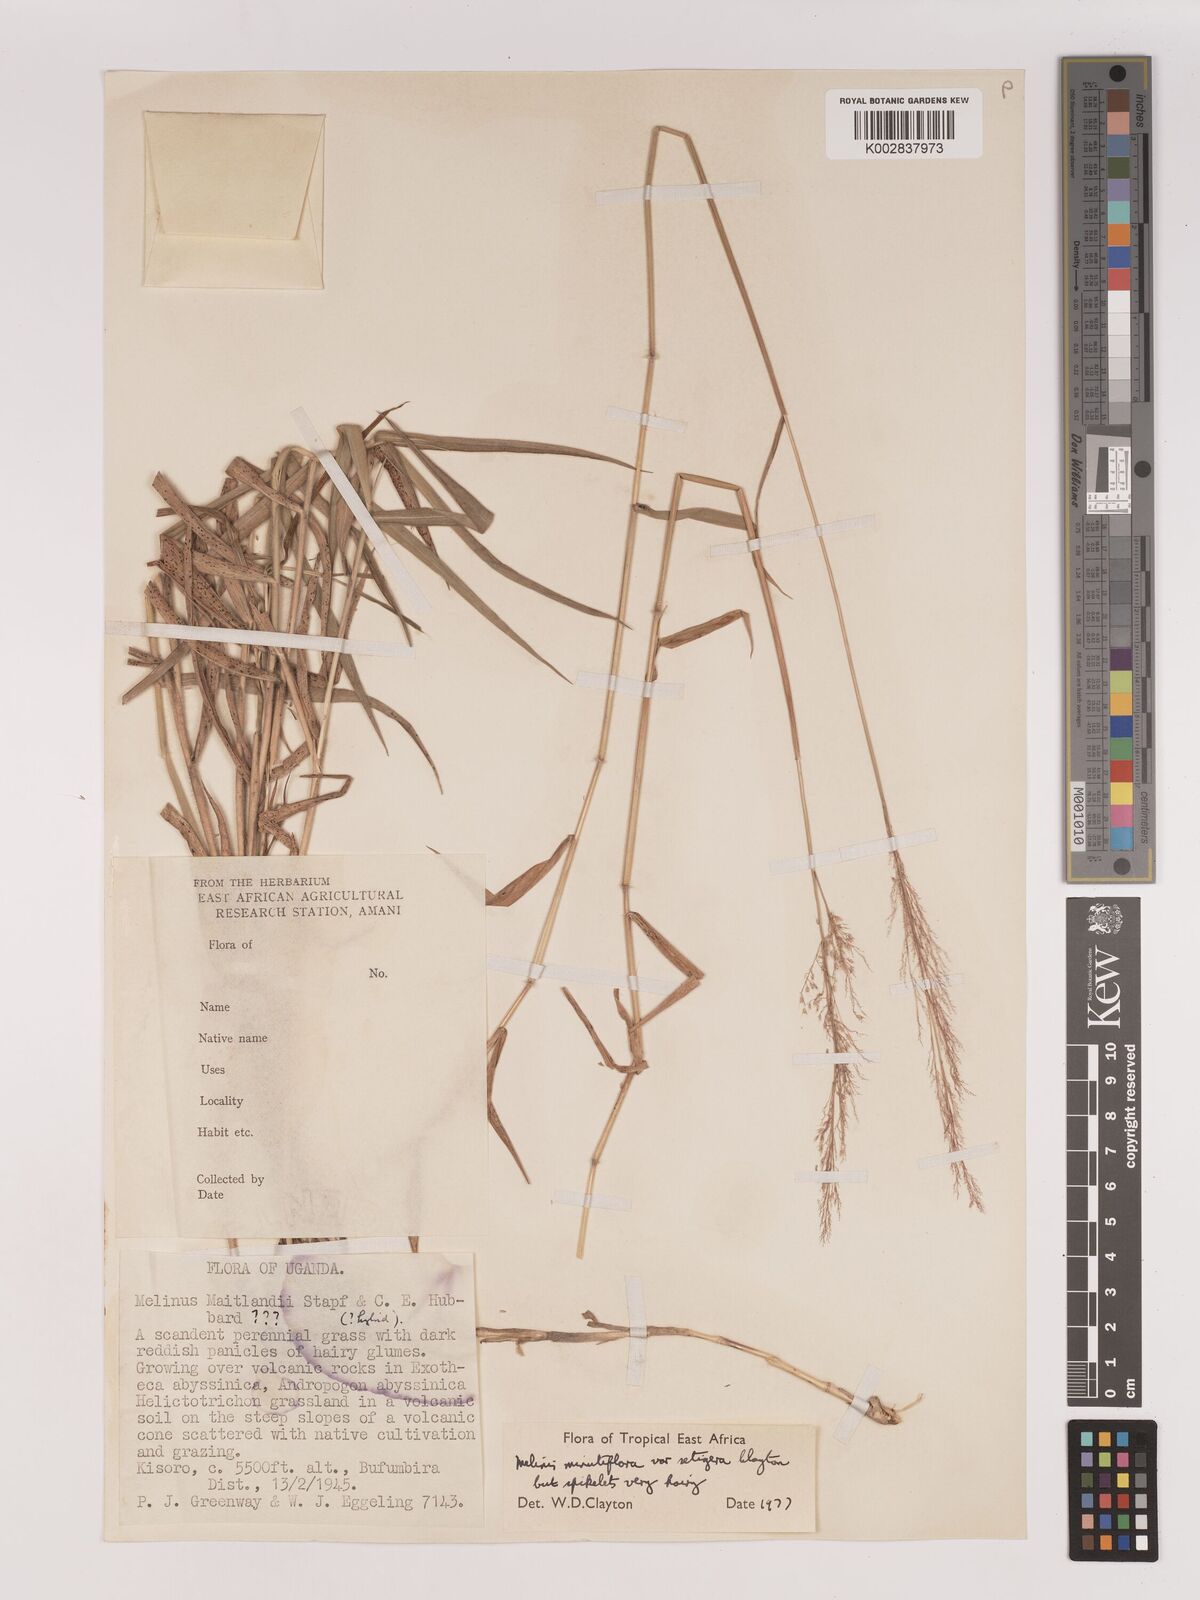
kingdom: Plantae
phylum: Tracheophyta
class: Liliopsida
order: Poales
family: Poaceae
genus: Melinis
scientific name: Melinis minutiflora
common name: Molassesgrass
